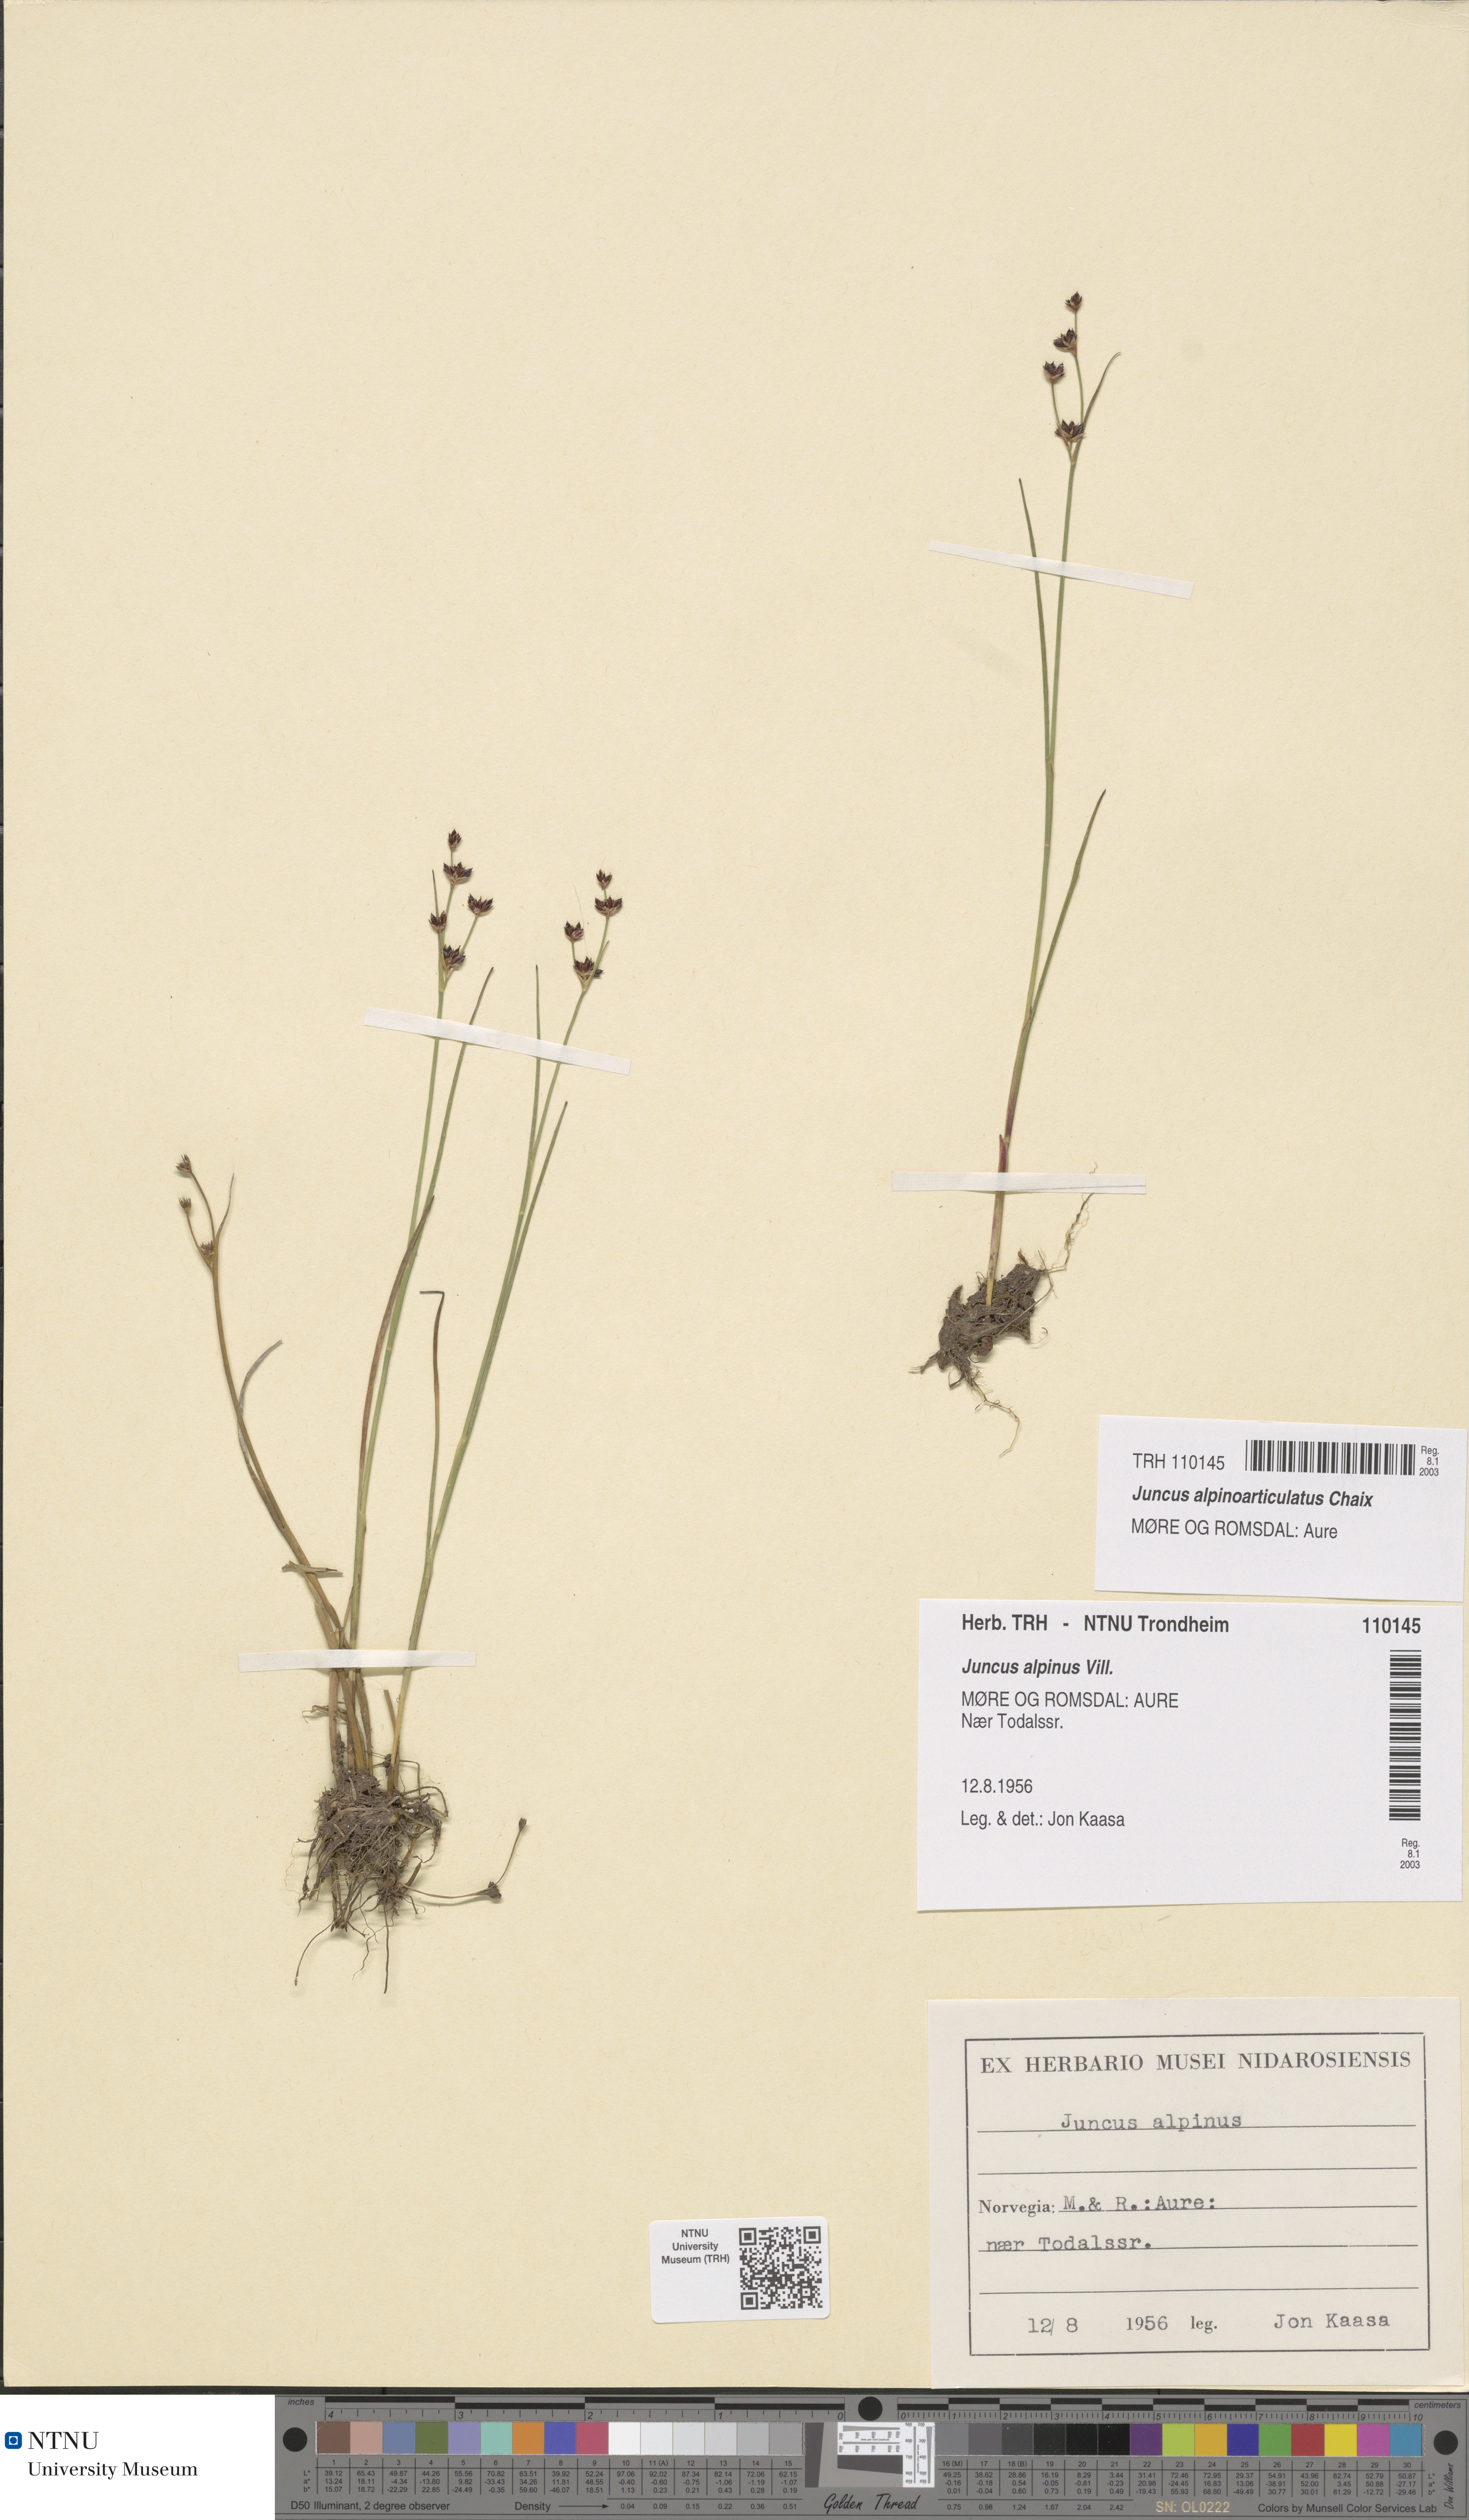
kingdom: Plantae
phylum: Tracheophyta
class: Liliopsida
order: Poales
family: Juncaceae
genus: Juncus
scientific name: Juncus alpinoarticulatus
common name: Alpine rush
